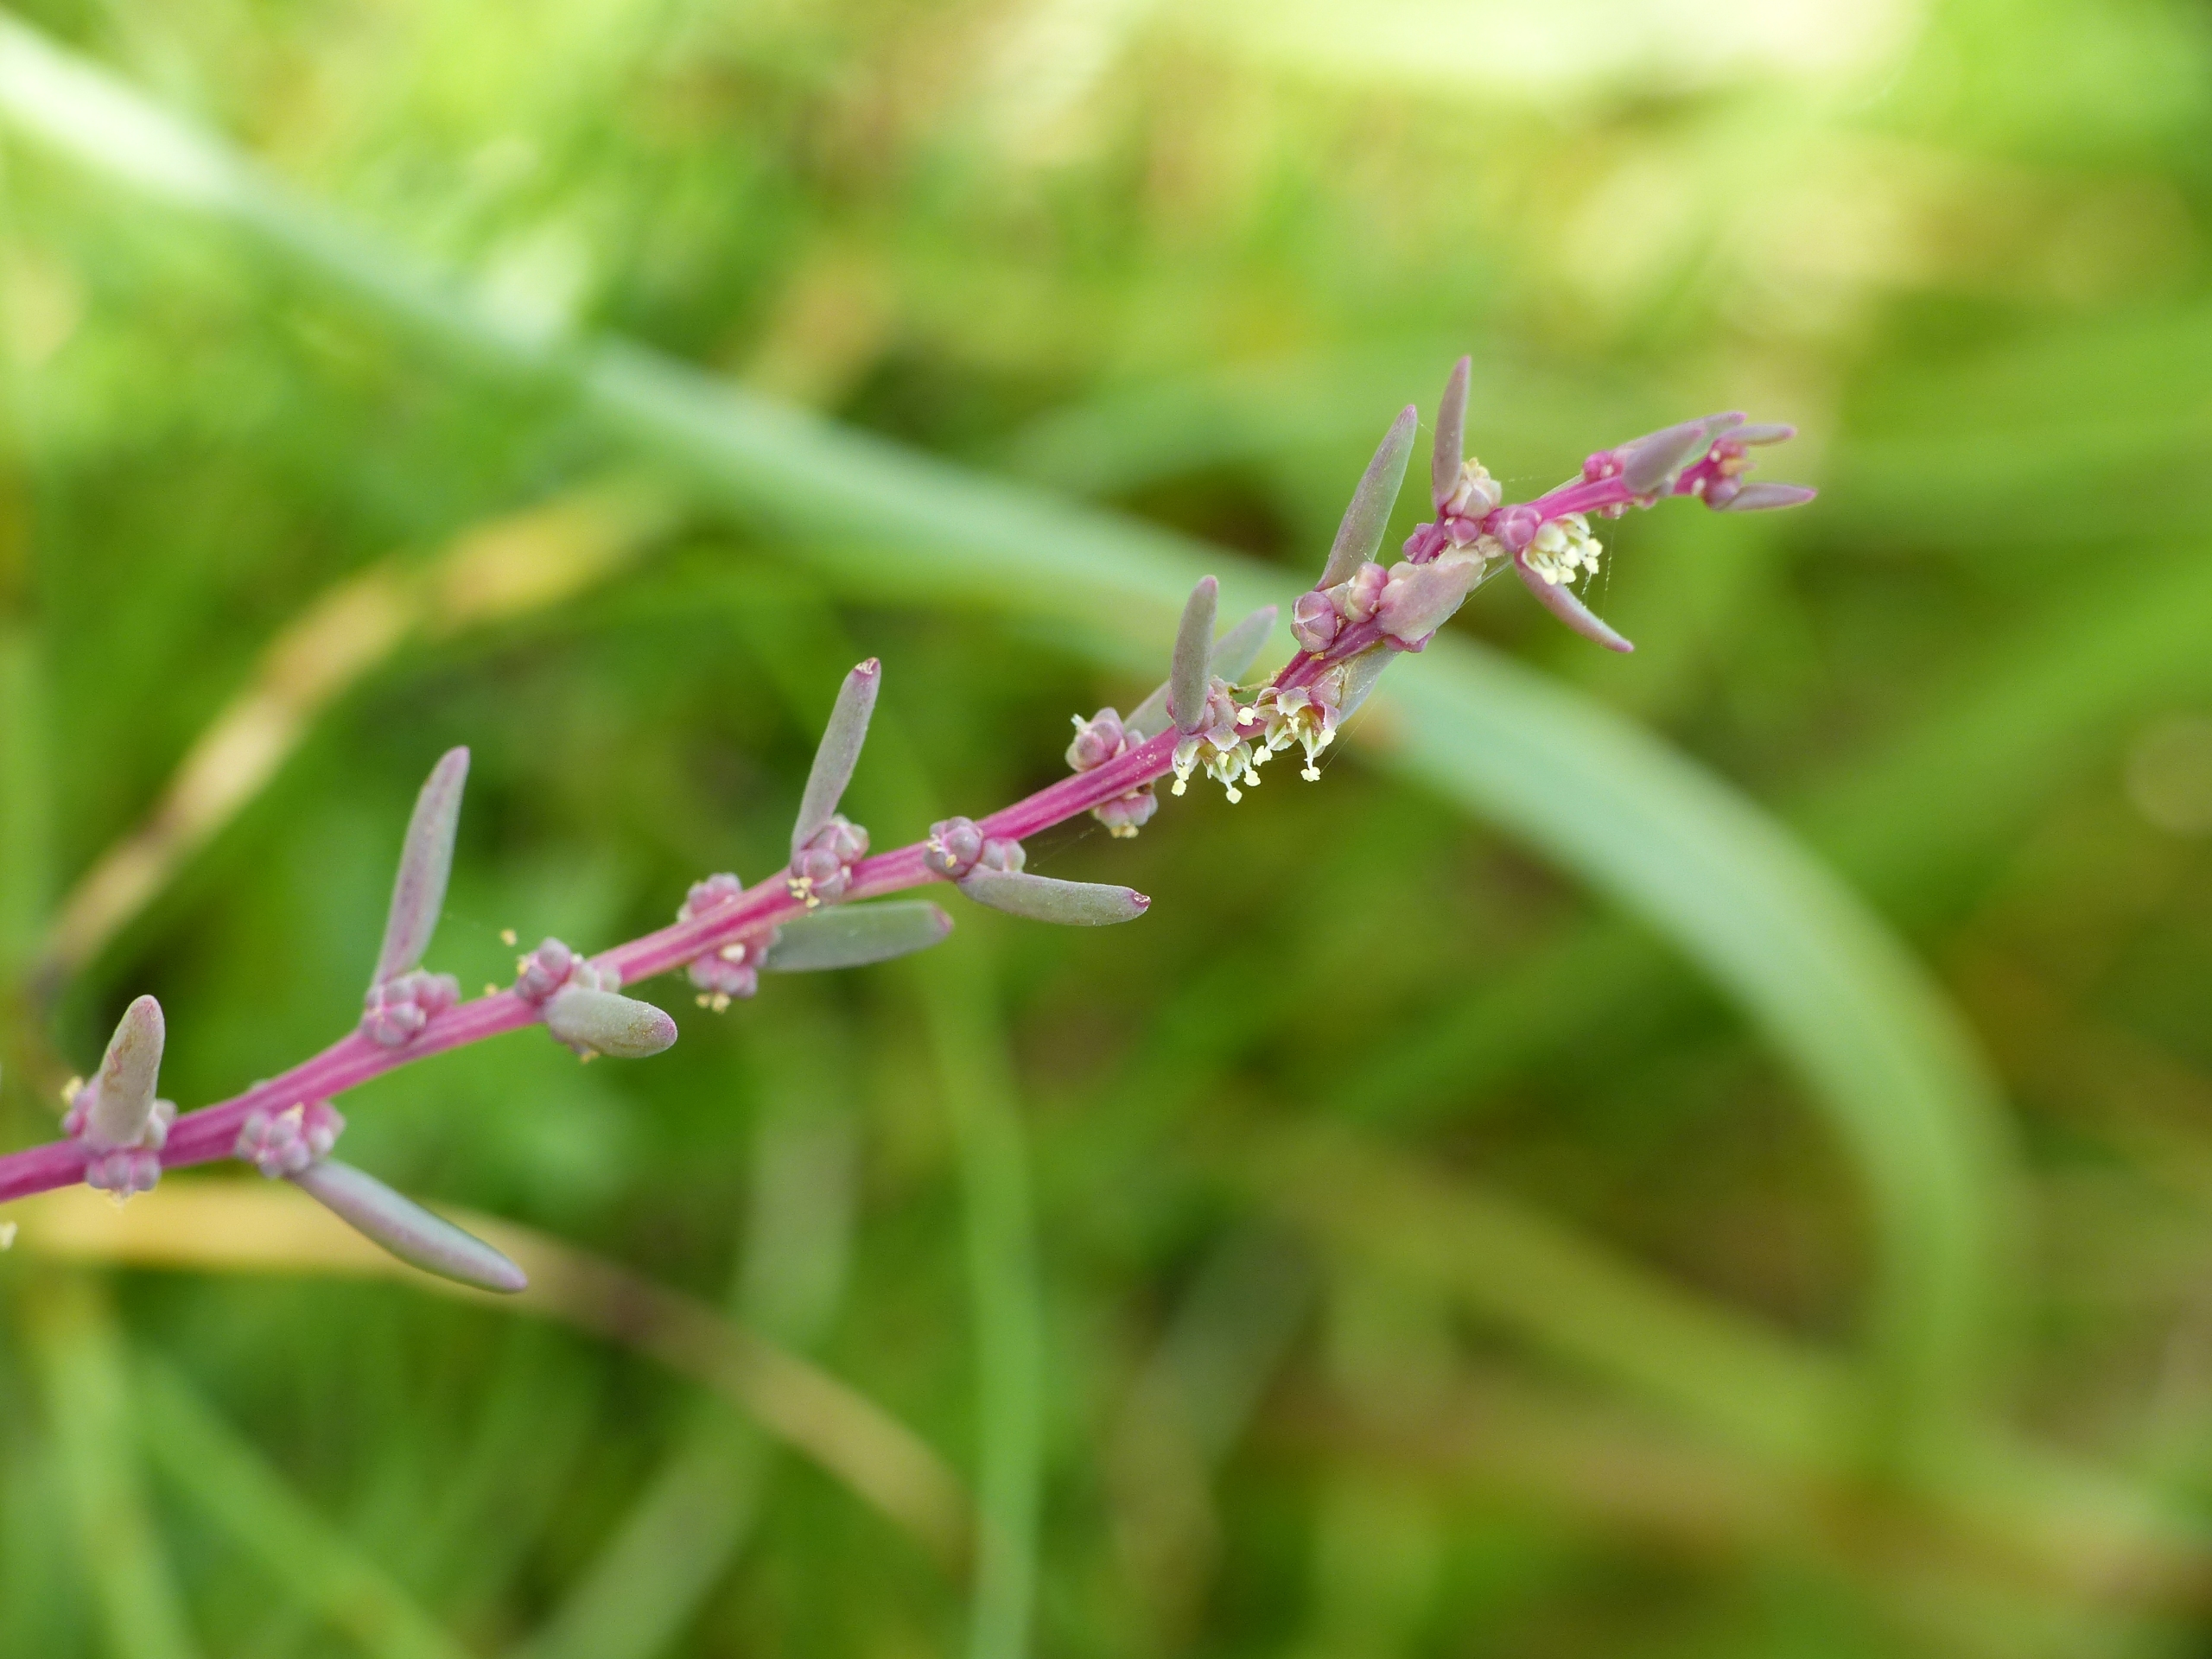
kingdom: Plantae
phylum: Tracheophyta
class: Magnoliopsida
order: Caryophyllales
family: Amaranthaceae
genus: Suaeda
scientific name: Suaeda maritima
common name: Strandgåsefod
